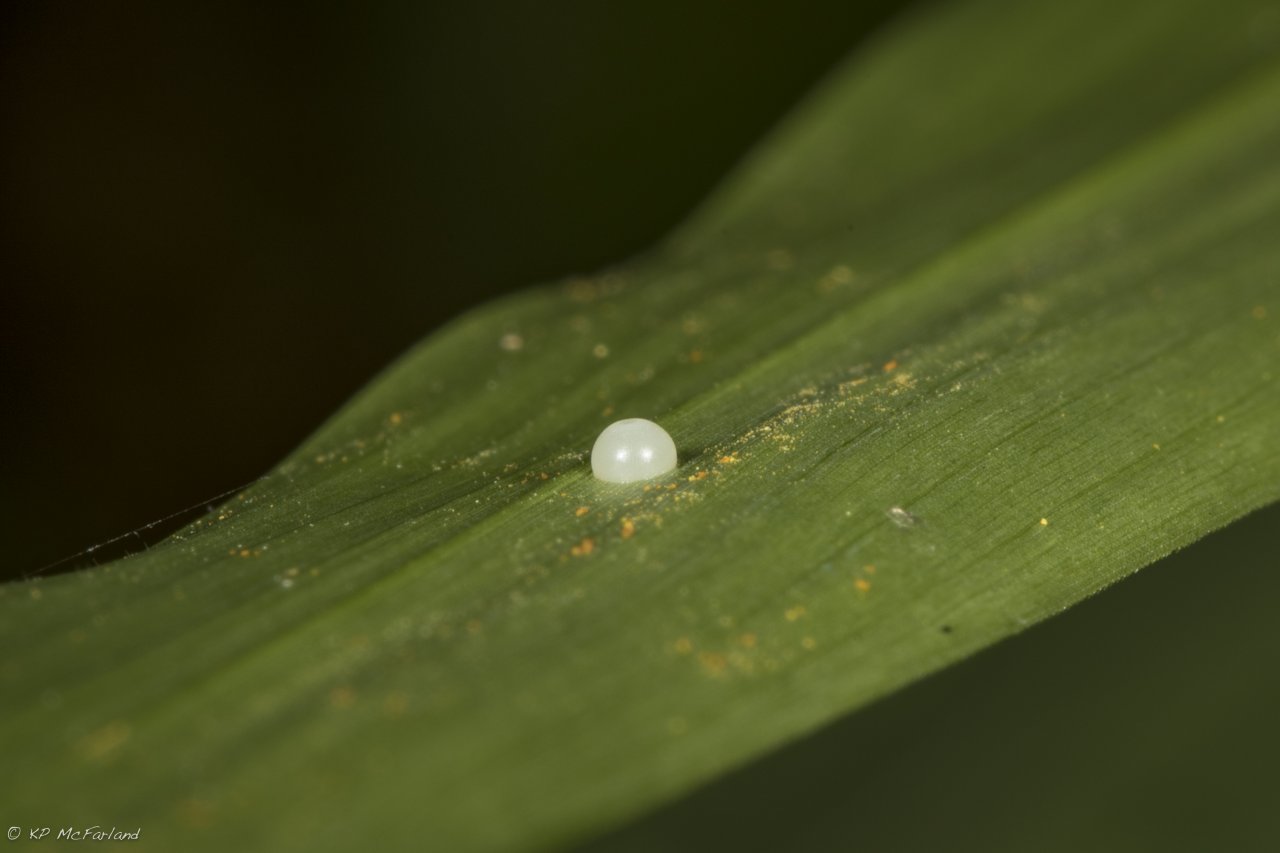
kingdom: Animalia
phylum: Arthropoda
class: Insecta
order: Lepidoptera
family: Hesperiidae
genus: Lerema
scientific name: Lerema accius
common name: Clouded Skipper
